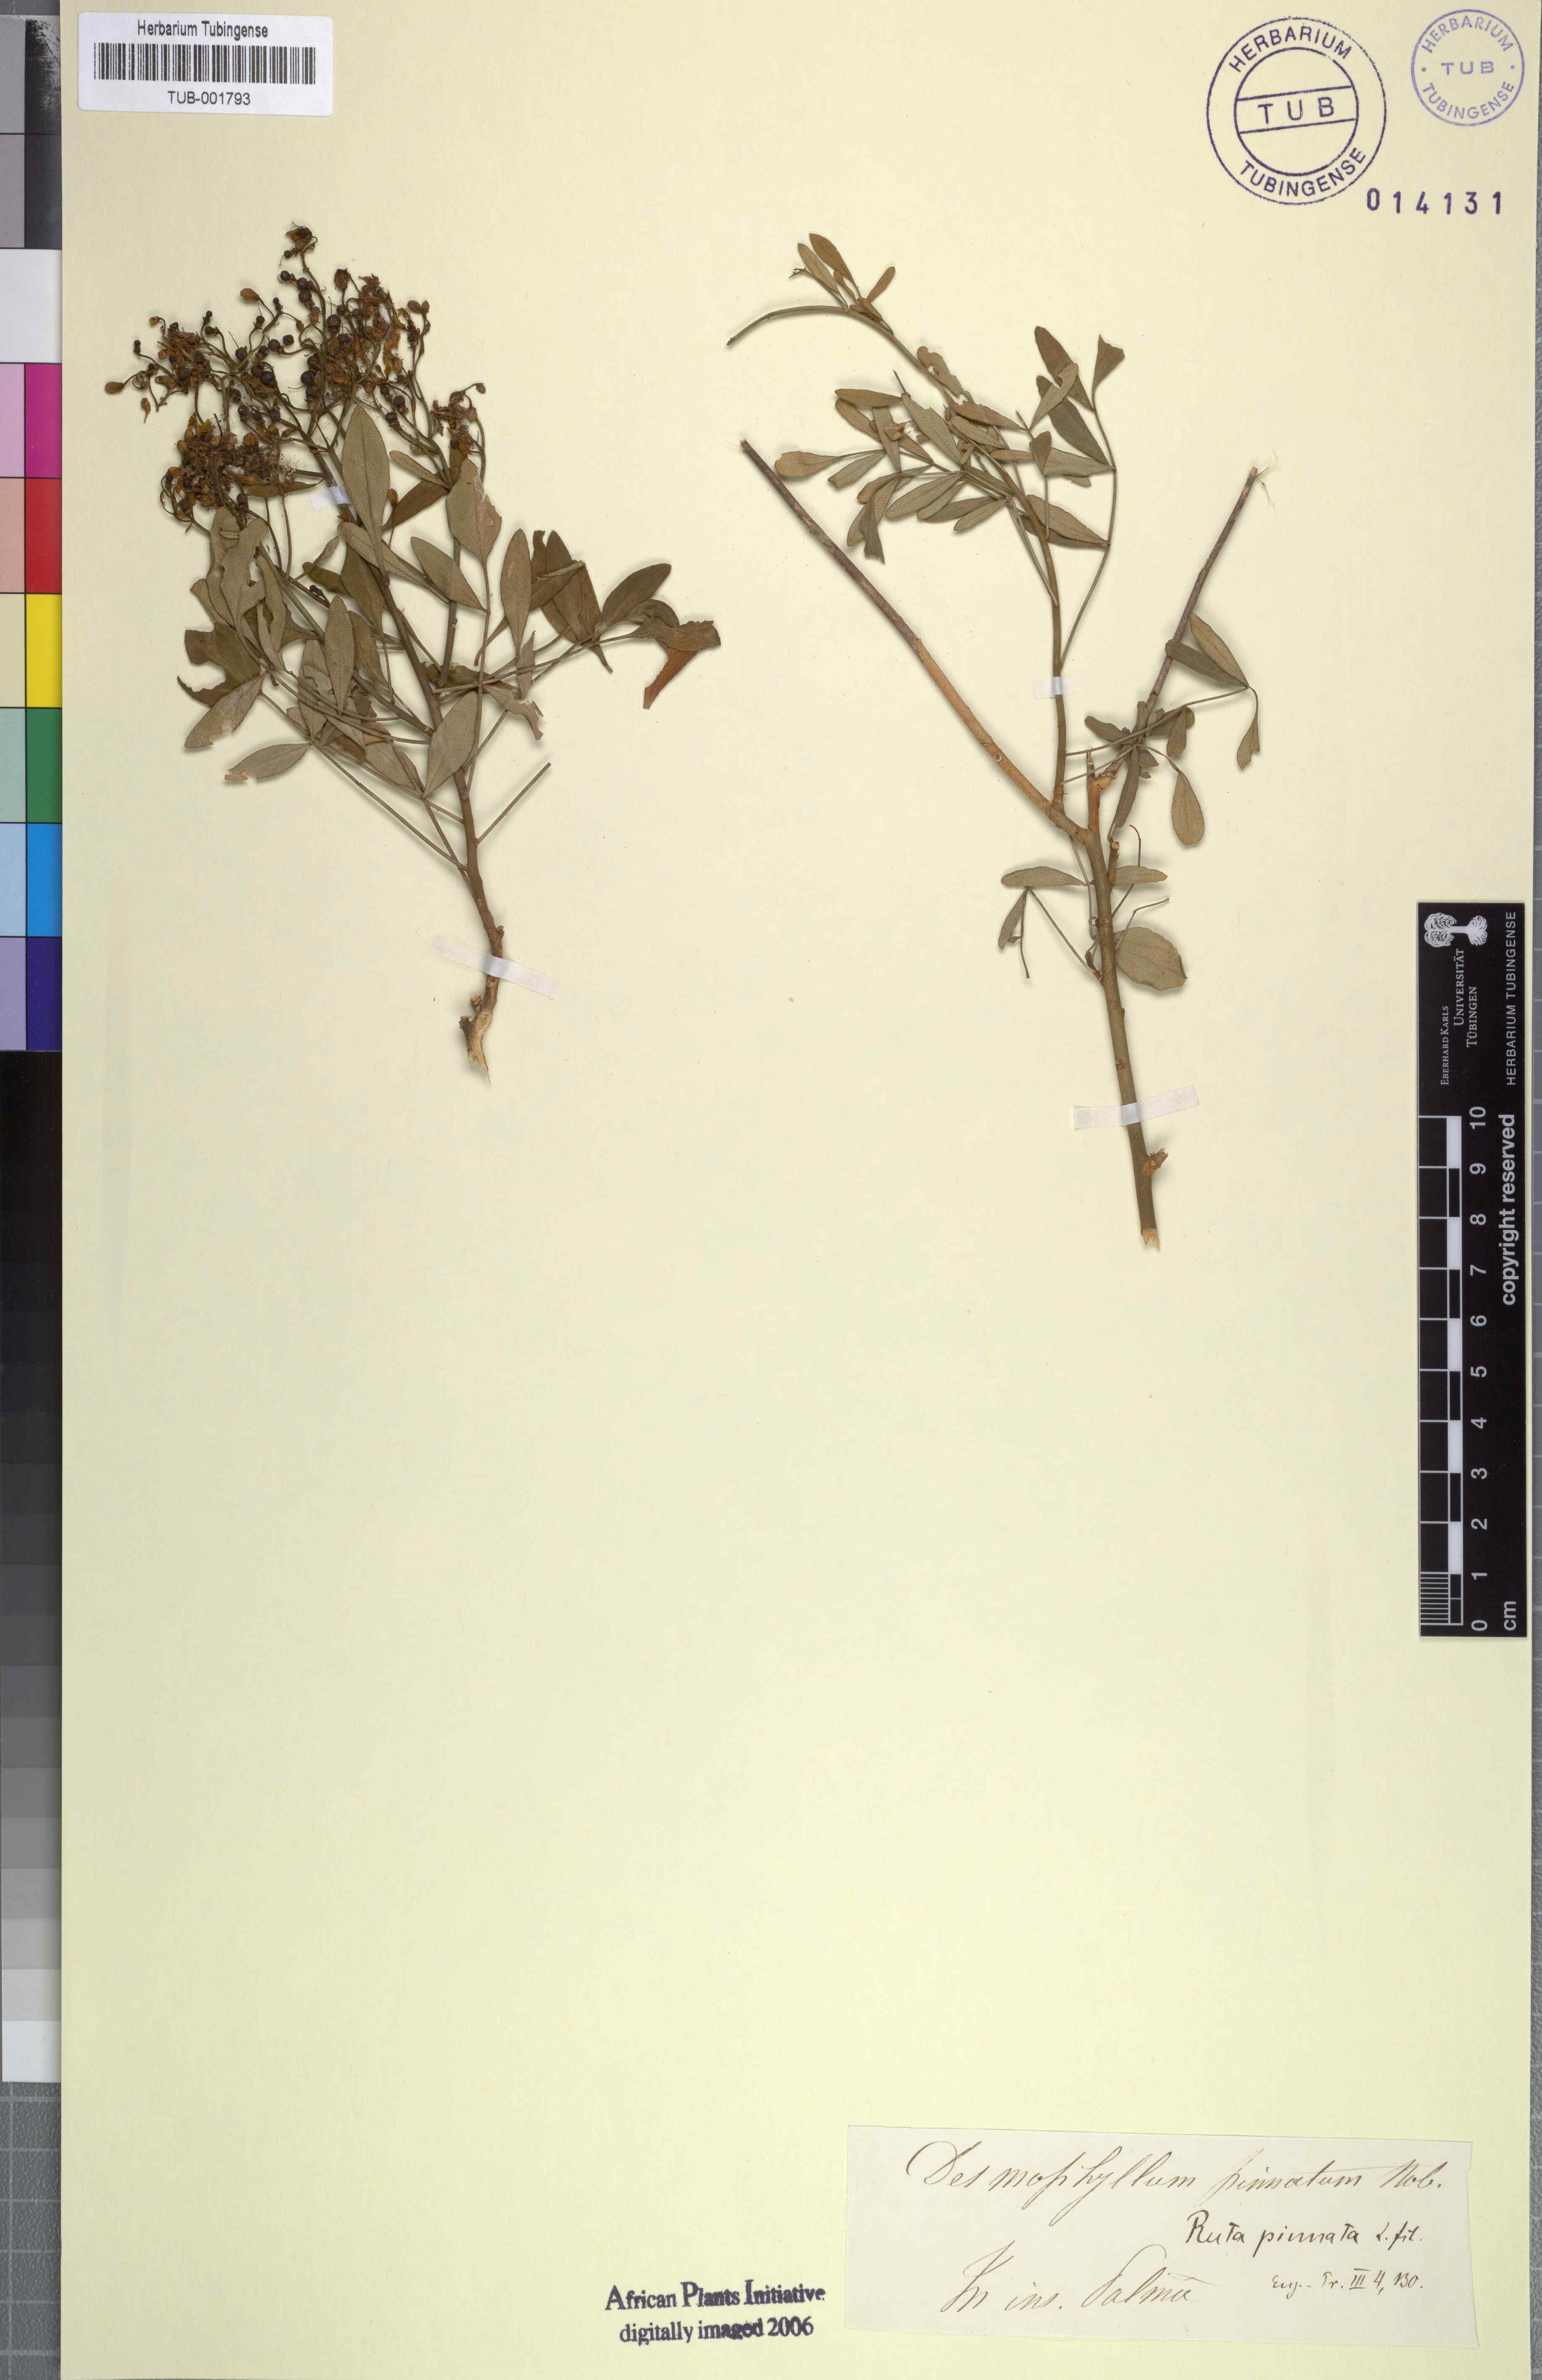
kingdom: Plantae
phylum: Tracheophyta
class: Magnoliopsida
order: Sapindales
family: Rutaceae
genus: Ruta
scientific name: Ruta pinnata
